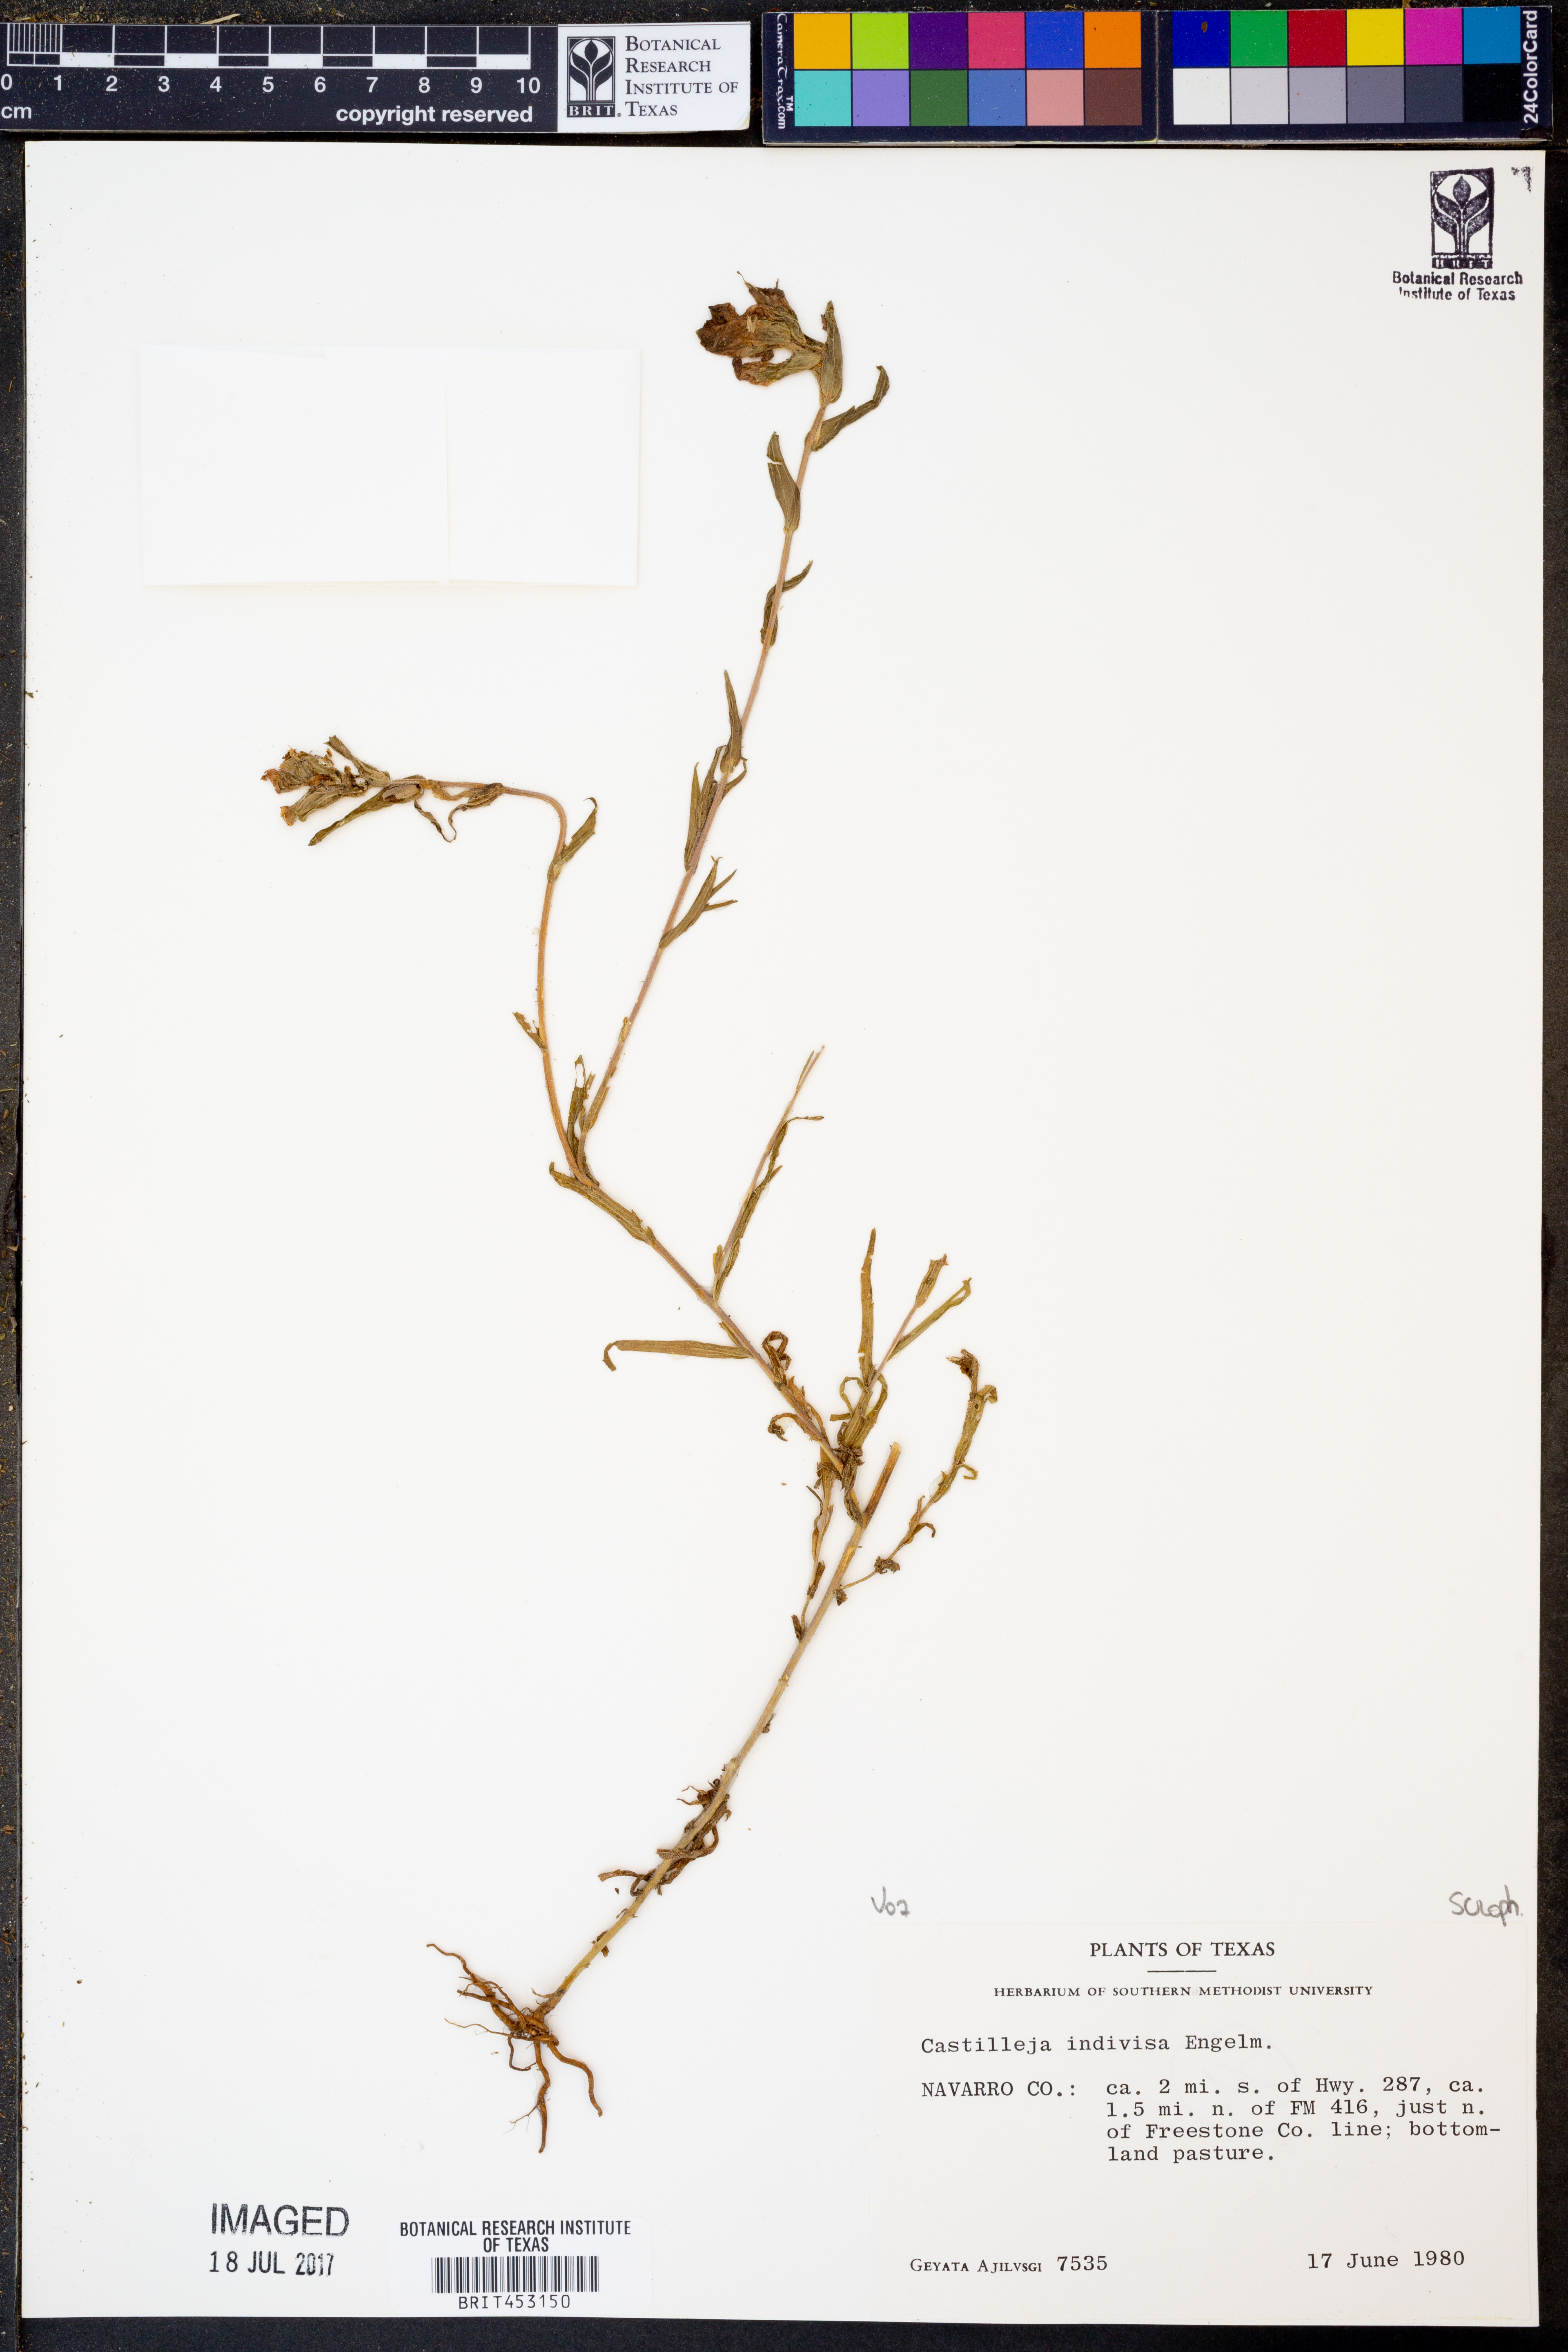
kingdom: Plantae
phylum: Tracheophyta
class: Magnoliopsida
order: Lamiales
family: Orobanchaceae
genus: Castilleja
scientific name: Castilleja indivisa
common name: Texas paintbrush
